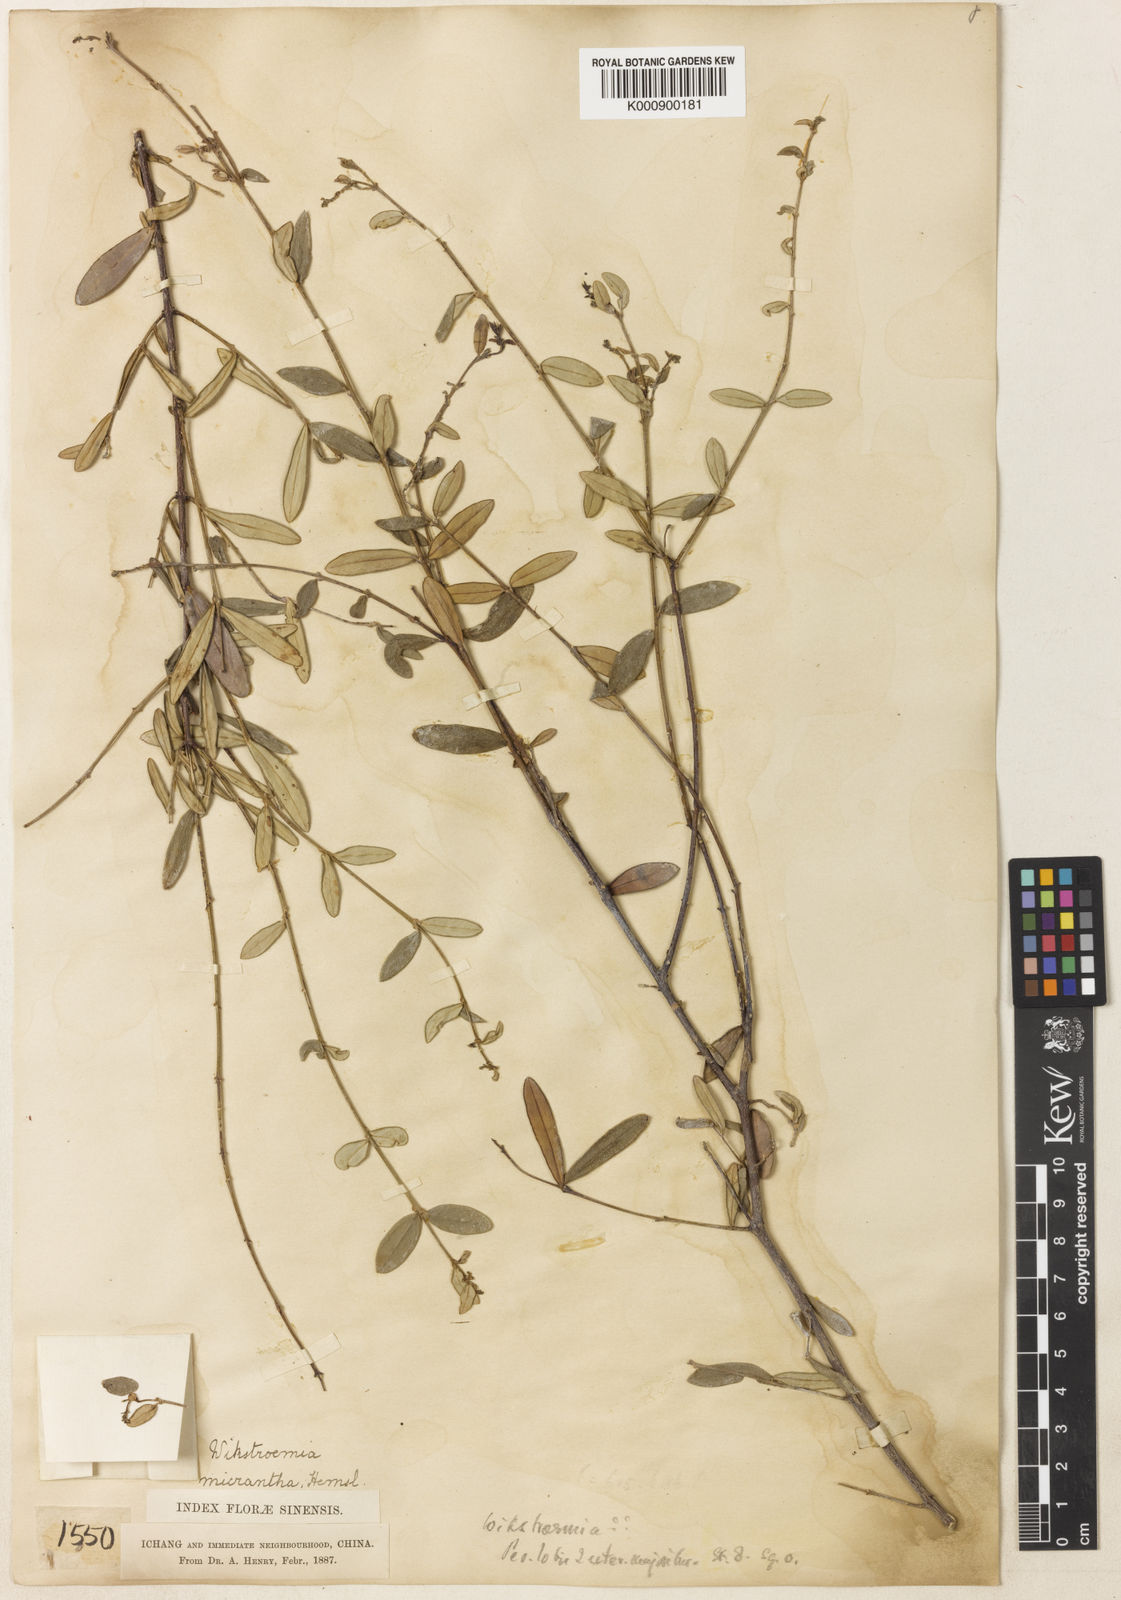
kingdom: Plantae
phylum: Tracheophyta
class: Magnoliopsida
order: Malvales
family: Thymelaeaceae
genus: Wikstroemia
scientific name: Wikstroemia micrantha
